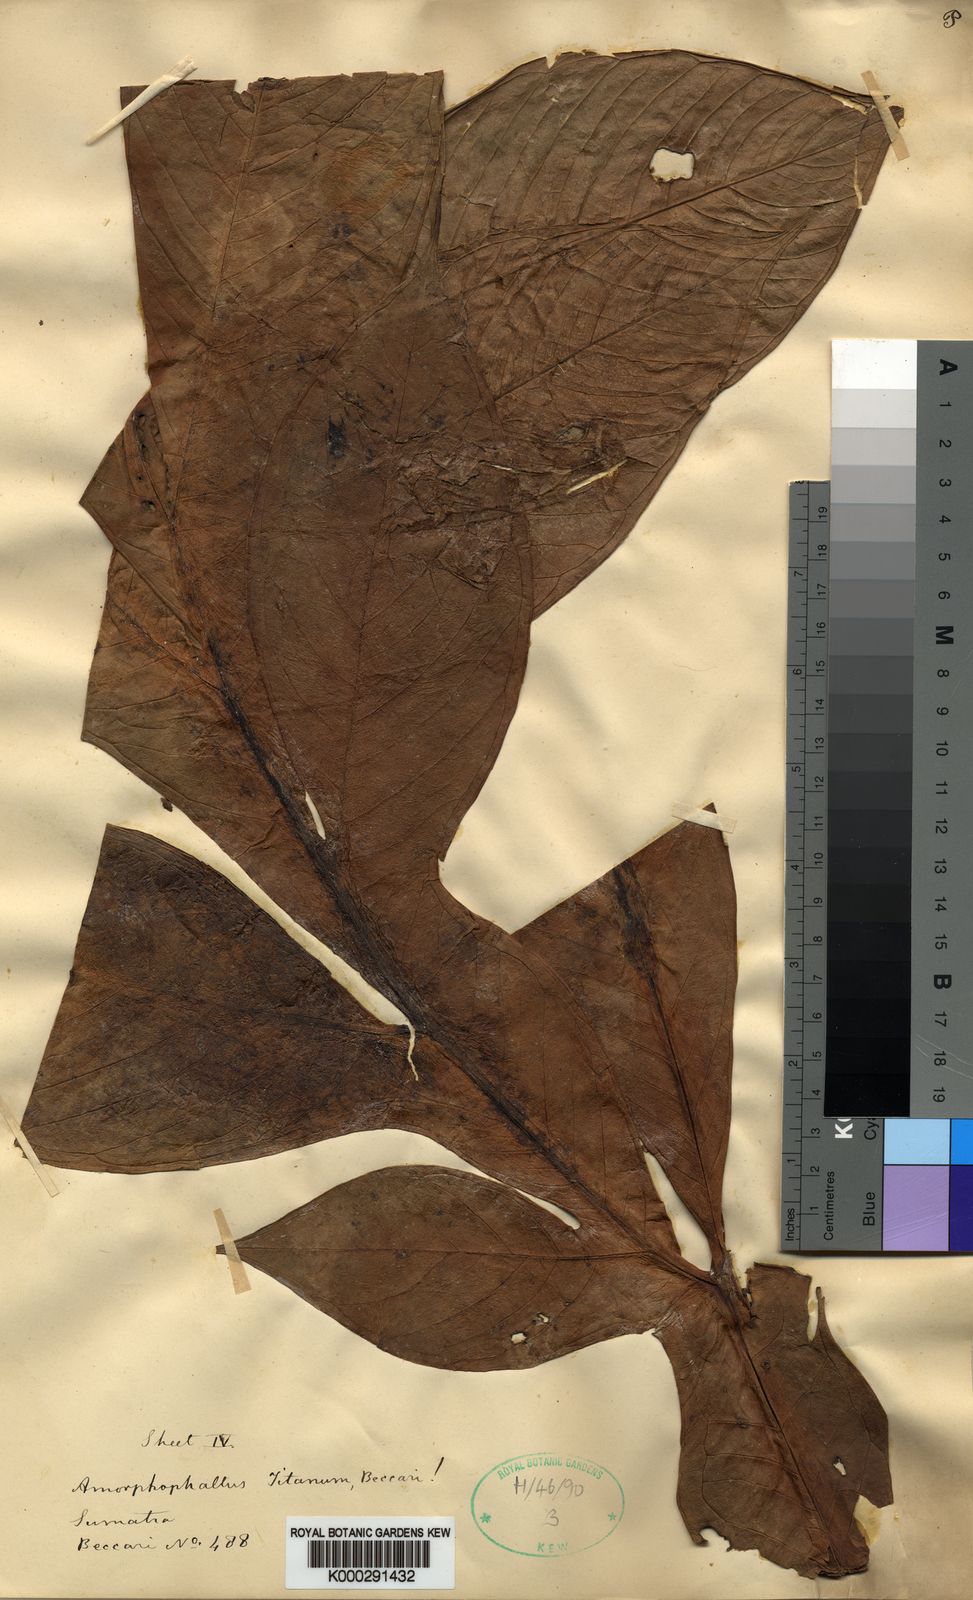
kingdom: Plantae
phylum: Tracheophyta
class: Liliopsida
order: Alismatales
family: Araceae
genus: Amorphophallus
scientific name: Amorphophallus titanum
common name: Titan arum
